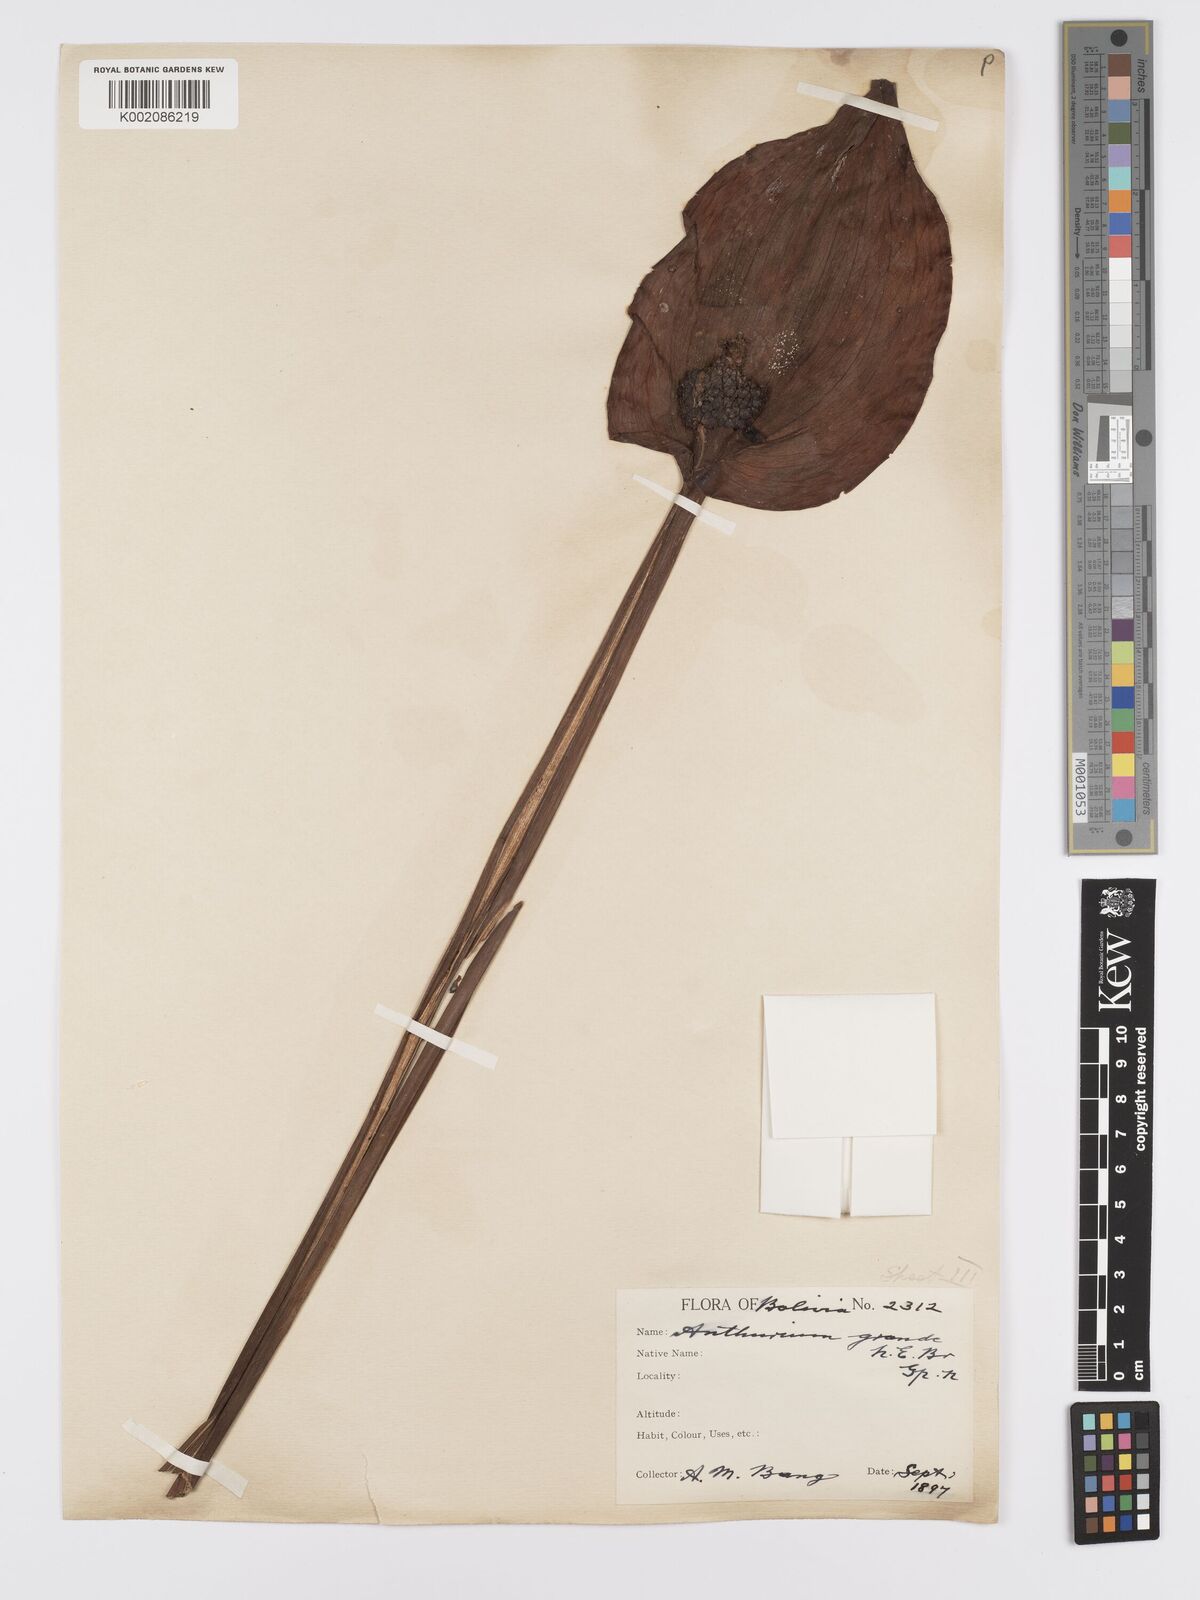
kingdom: Plantae
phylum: Tracheophyta
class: Liliopsida
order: Alismatales
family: Araceae
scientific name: Araceae
